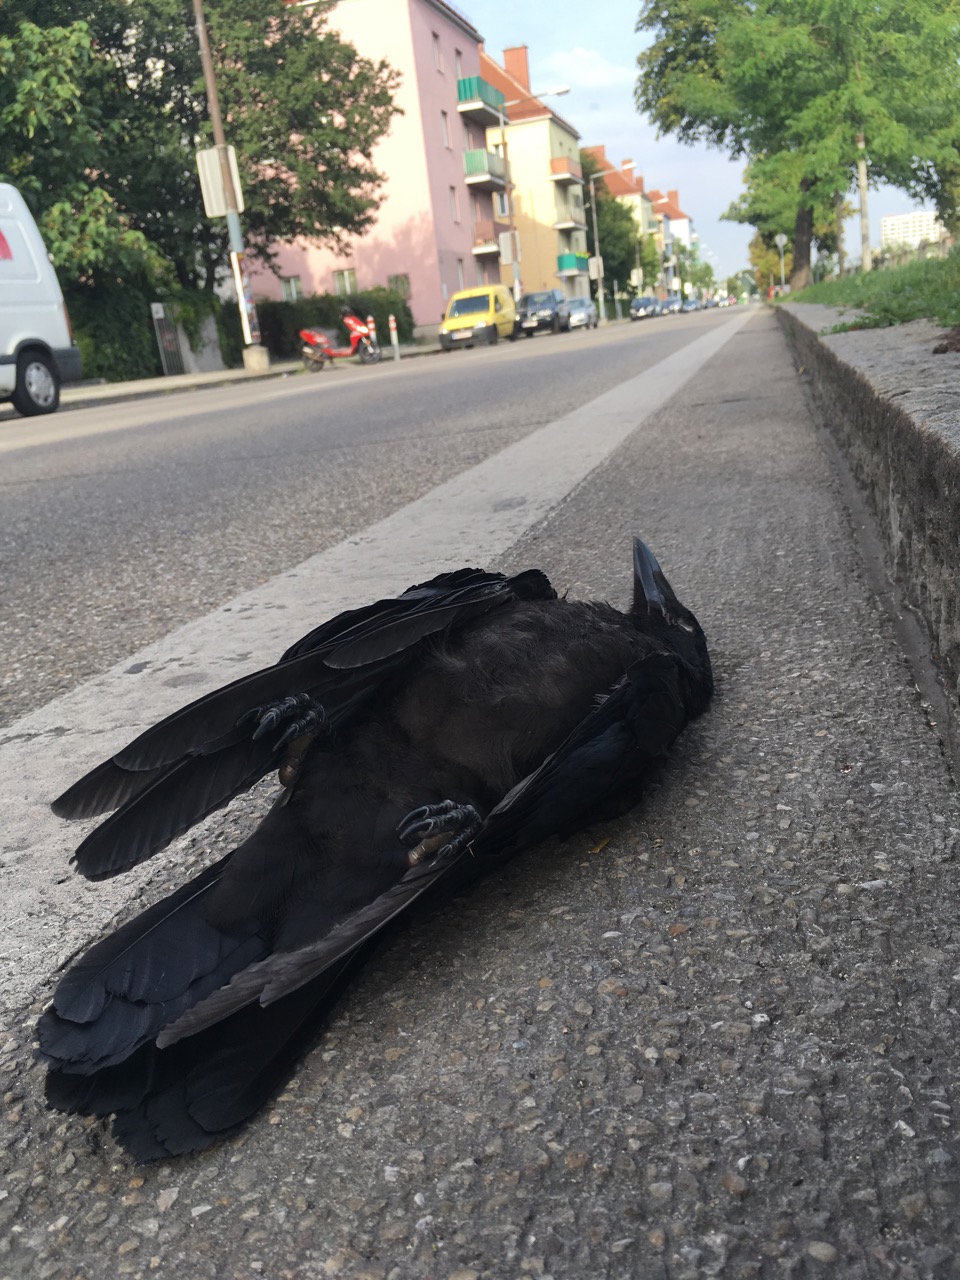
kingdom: Animalia
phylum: Chordata
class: Aves
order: Passeriformes
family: Corvidae
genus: Corvus
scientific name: Corvus corone
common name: Carrion crow
